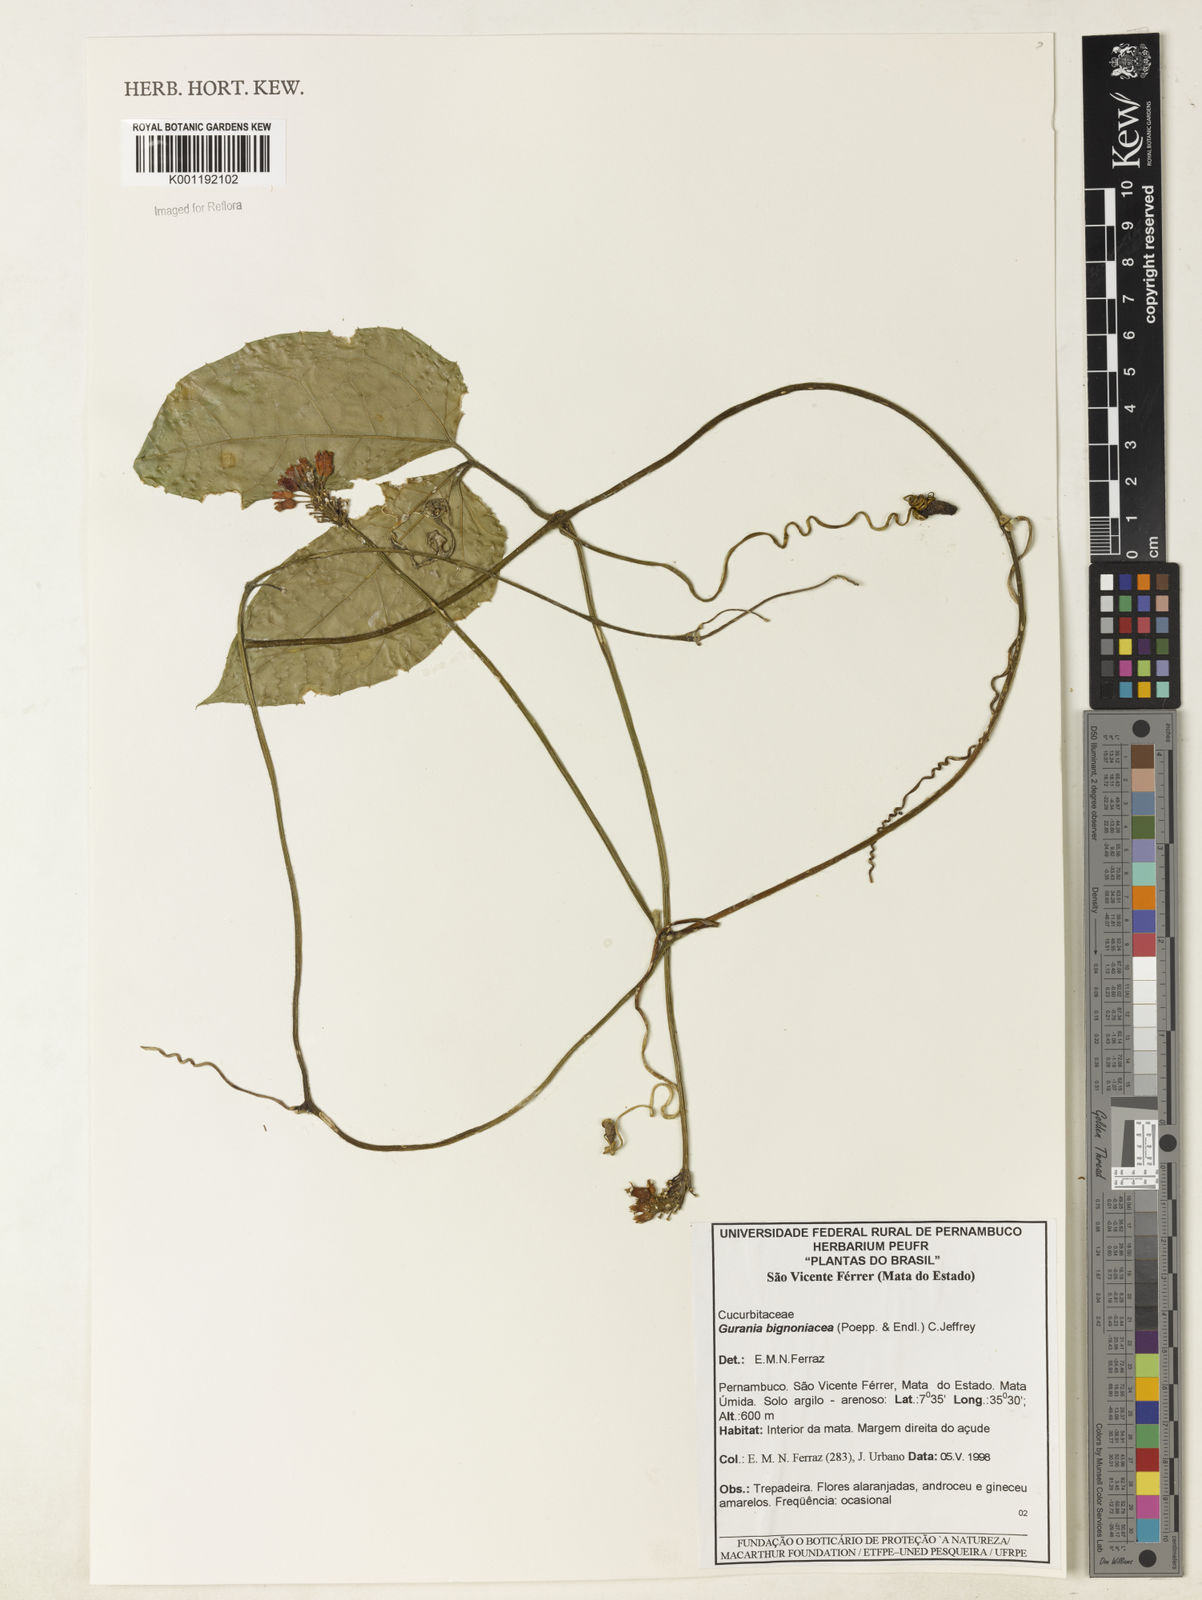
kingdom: Plantae
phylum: Tracheophyta
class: Magnoliopsida
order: Cucurbitales
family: Cucurbitaceae
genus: Gurania
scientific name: Gurania bignoniacea
